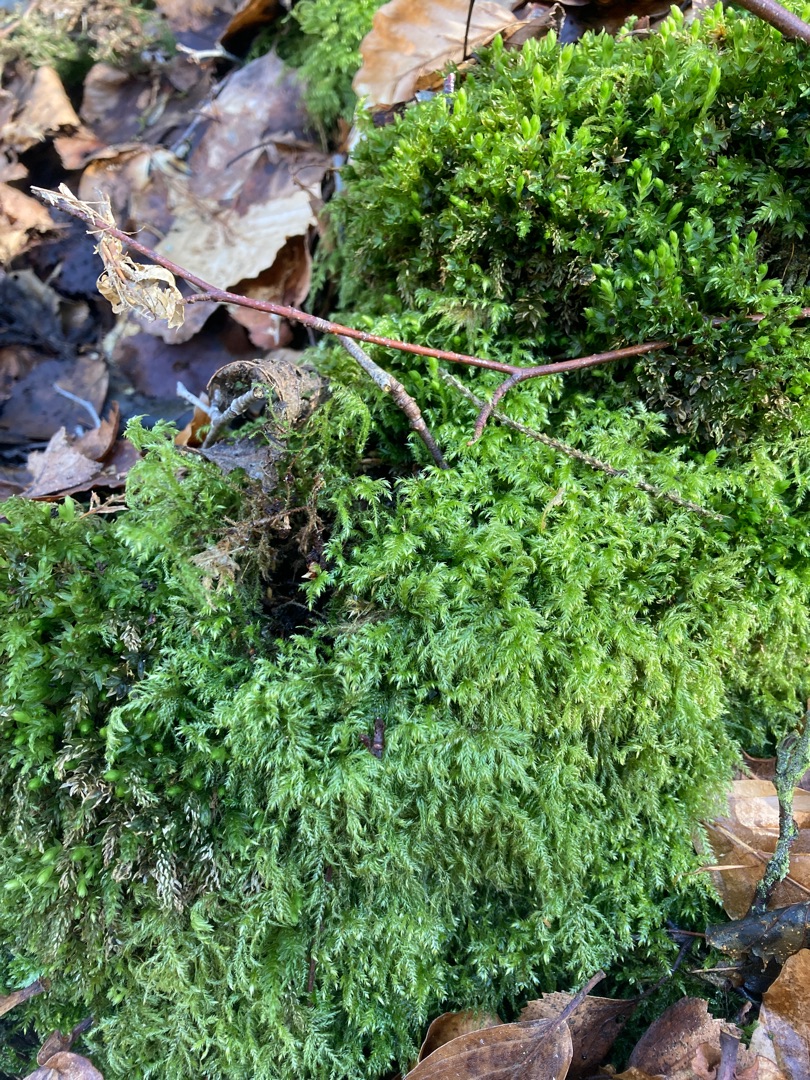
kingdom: Plantae
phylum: Bryophyta
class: Bryopsida
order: Hypnales
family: Lembophyllaceae
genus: Pseudisothecium
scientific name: Pseudisothecium myosuroides
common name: Slank stammemos
